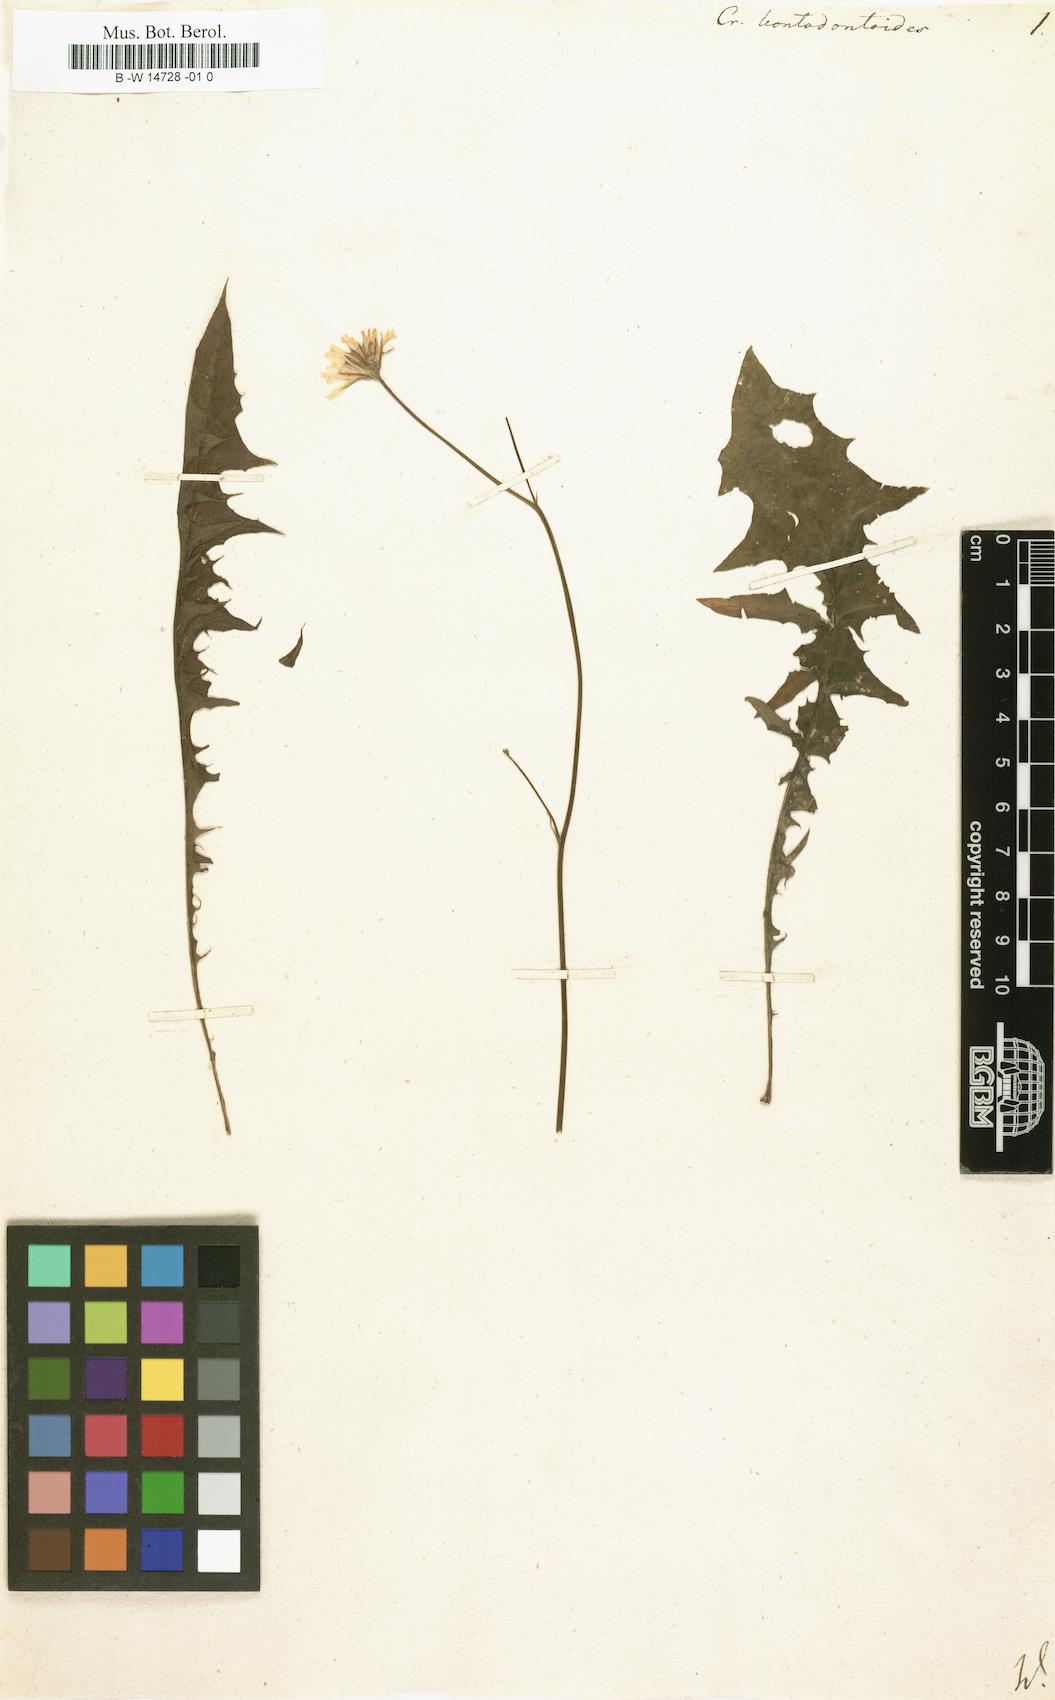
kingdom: Plantae
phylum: Tracheophyta
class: Magnoliopsida
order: Asterales
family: Asteraceae
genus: Crepis
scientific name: Crepis leontodontoides
